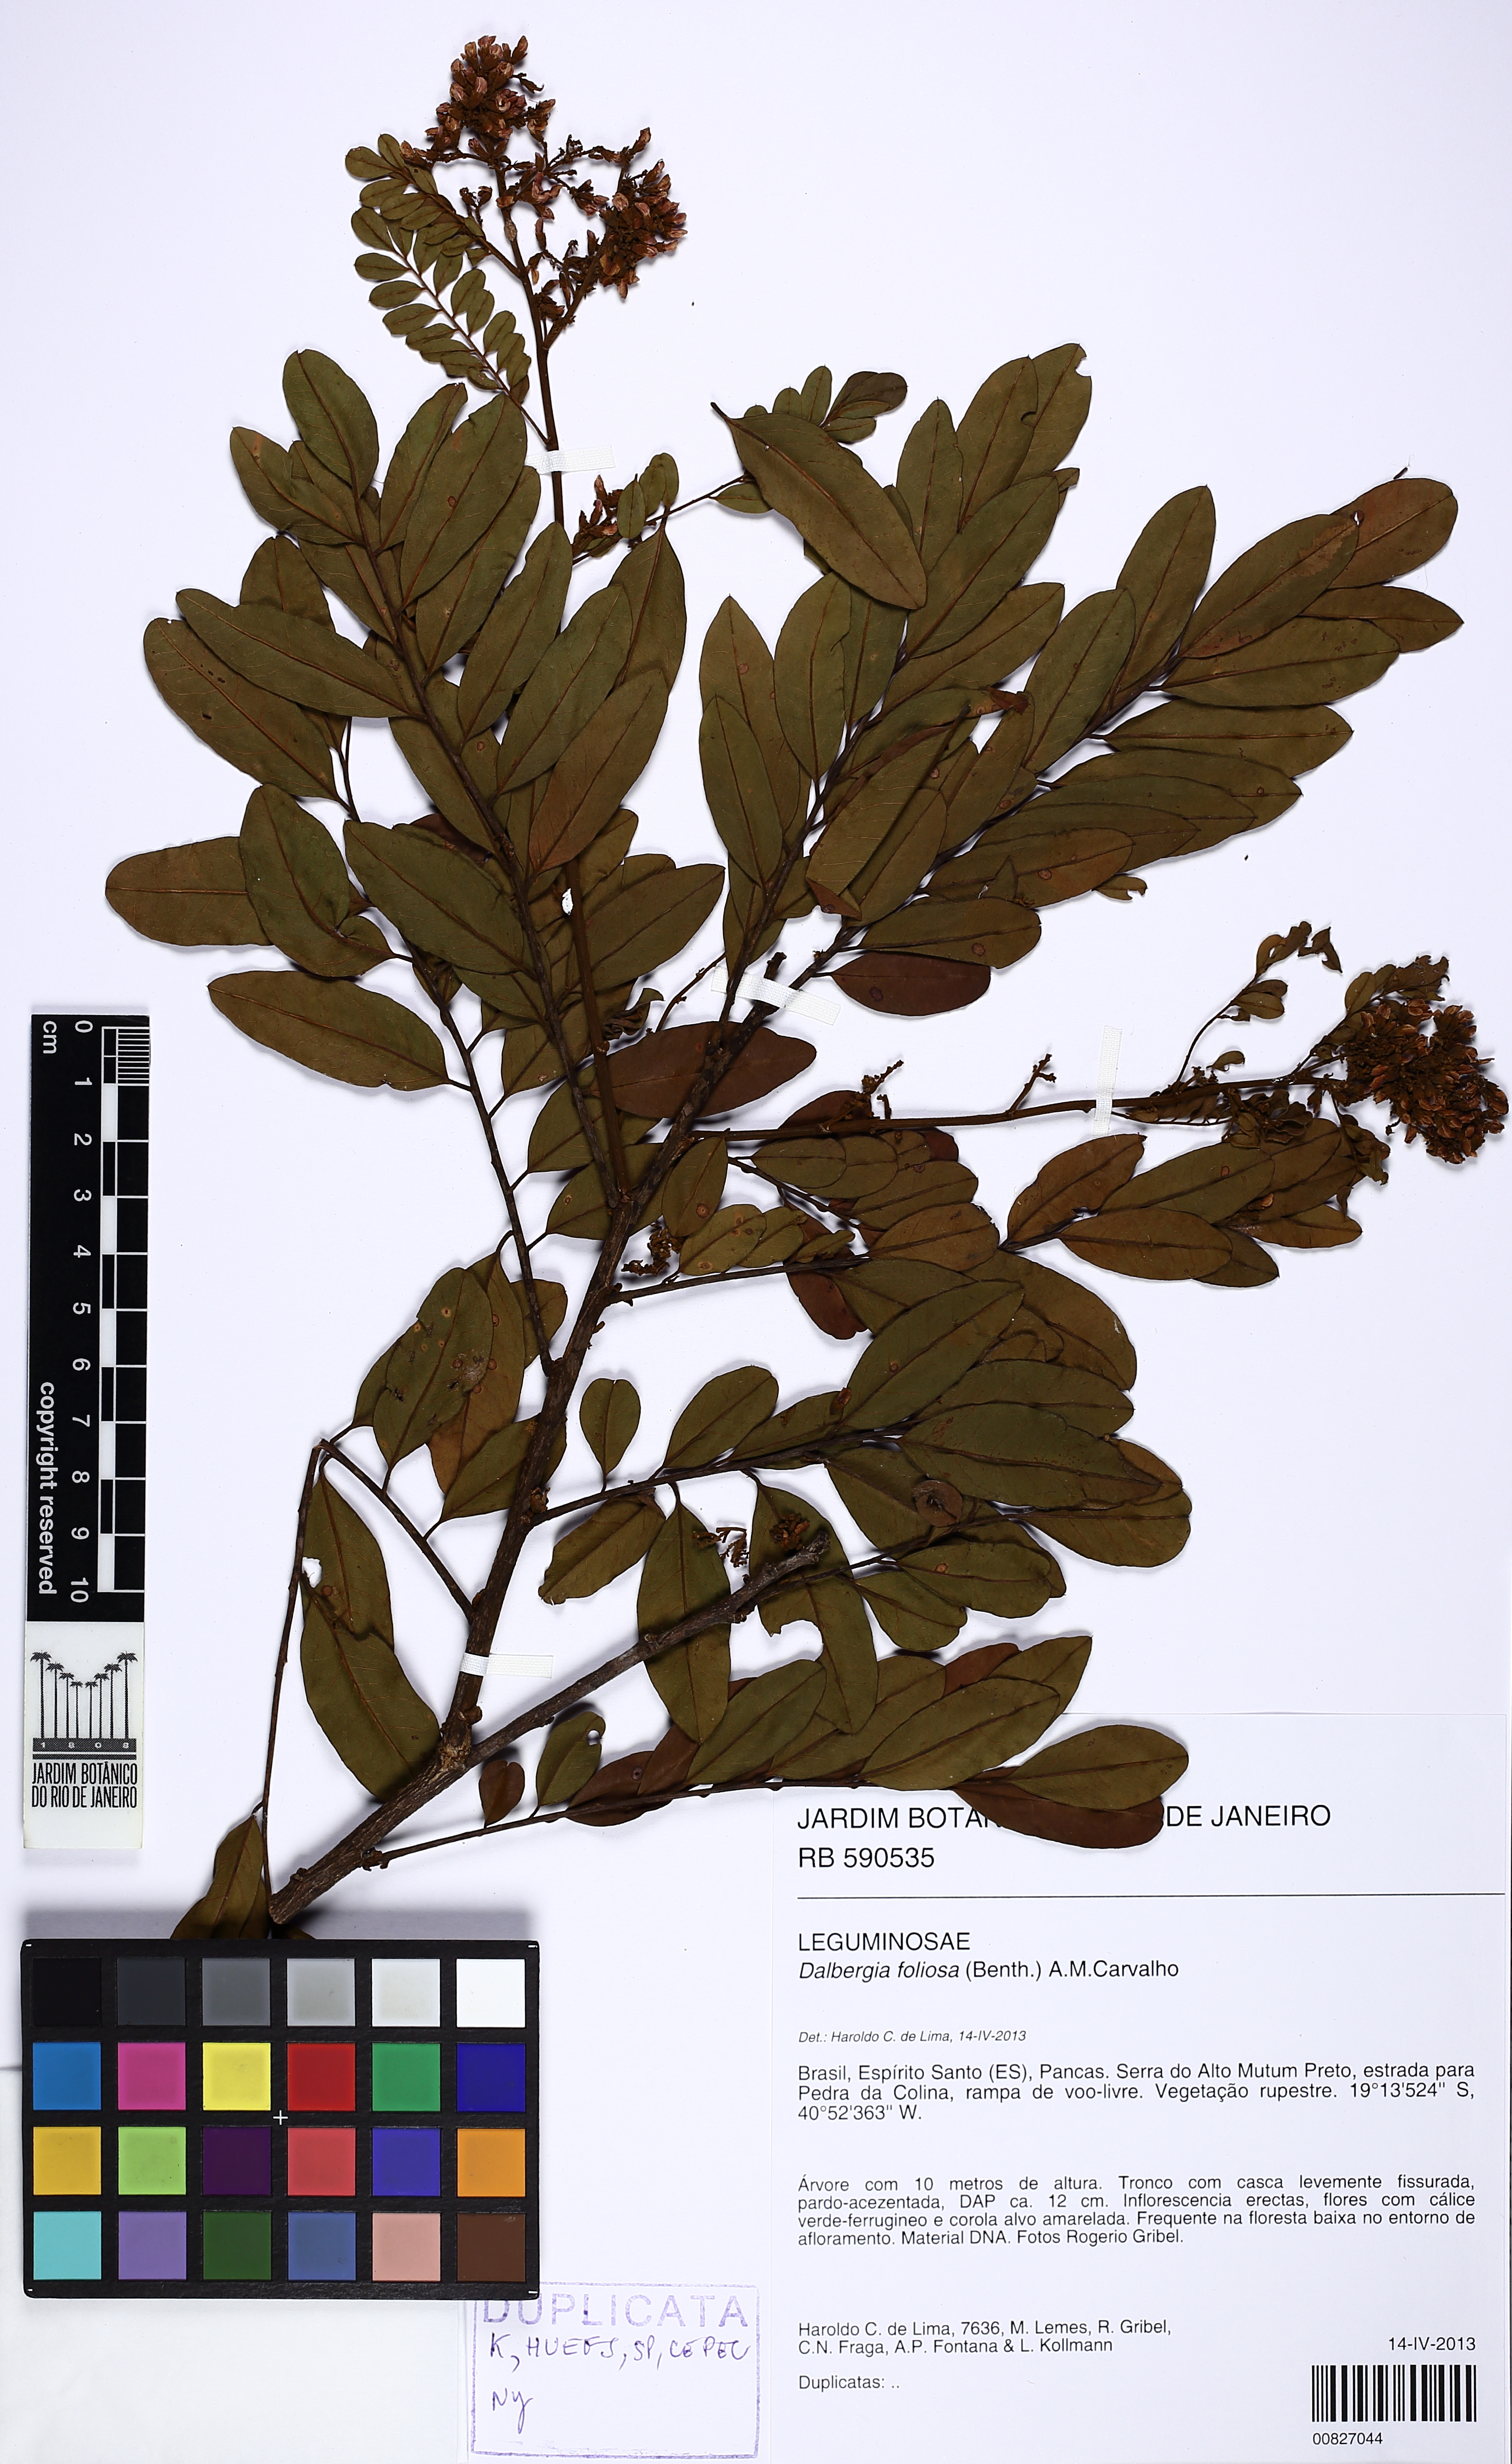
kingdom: Plantae
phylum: Tracheophyta
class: Magnoliopsida
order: Fabales
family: Fabaceae
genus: Dalbergia
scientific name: Dalbergia foliolosa
